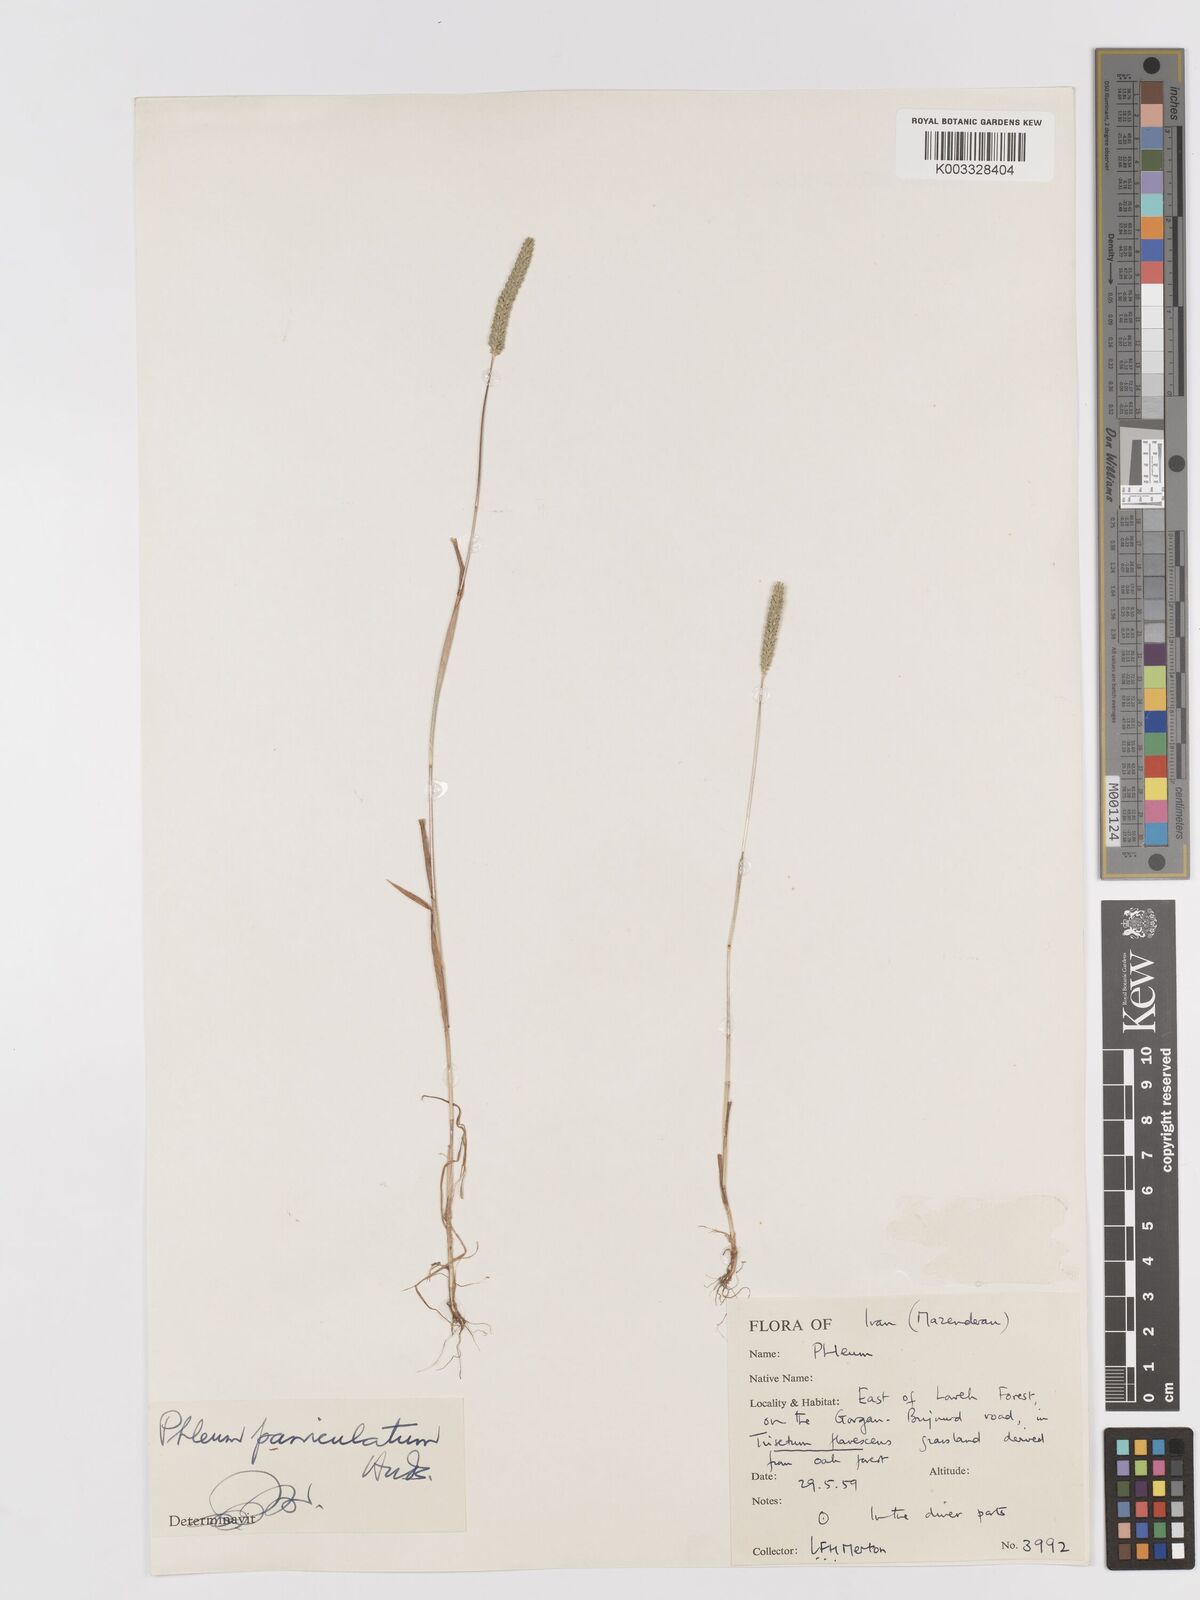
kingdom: Plantae
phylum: Tracheophyta
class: Liliopsida
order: Poales
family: Poaceae
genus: Phleum
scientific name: Phleum paniculatum
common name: British timothy
